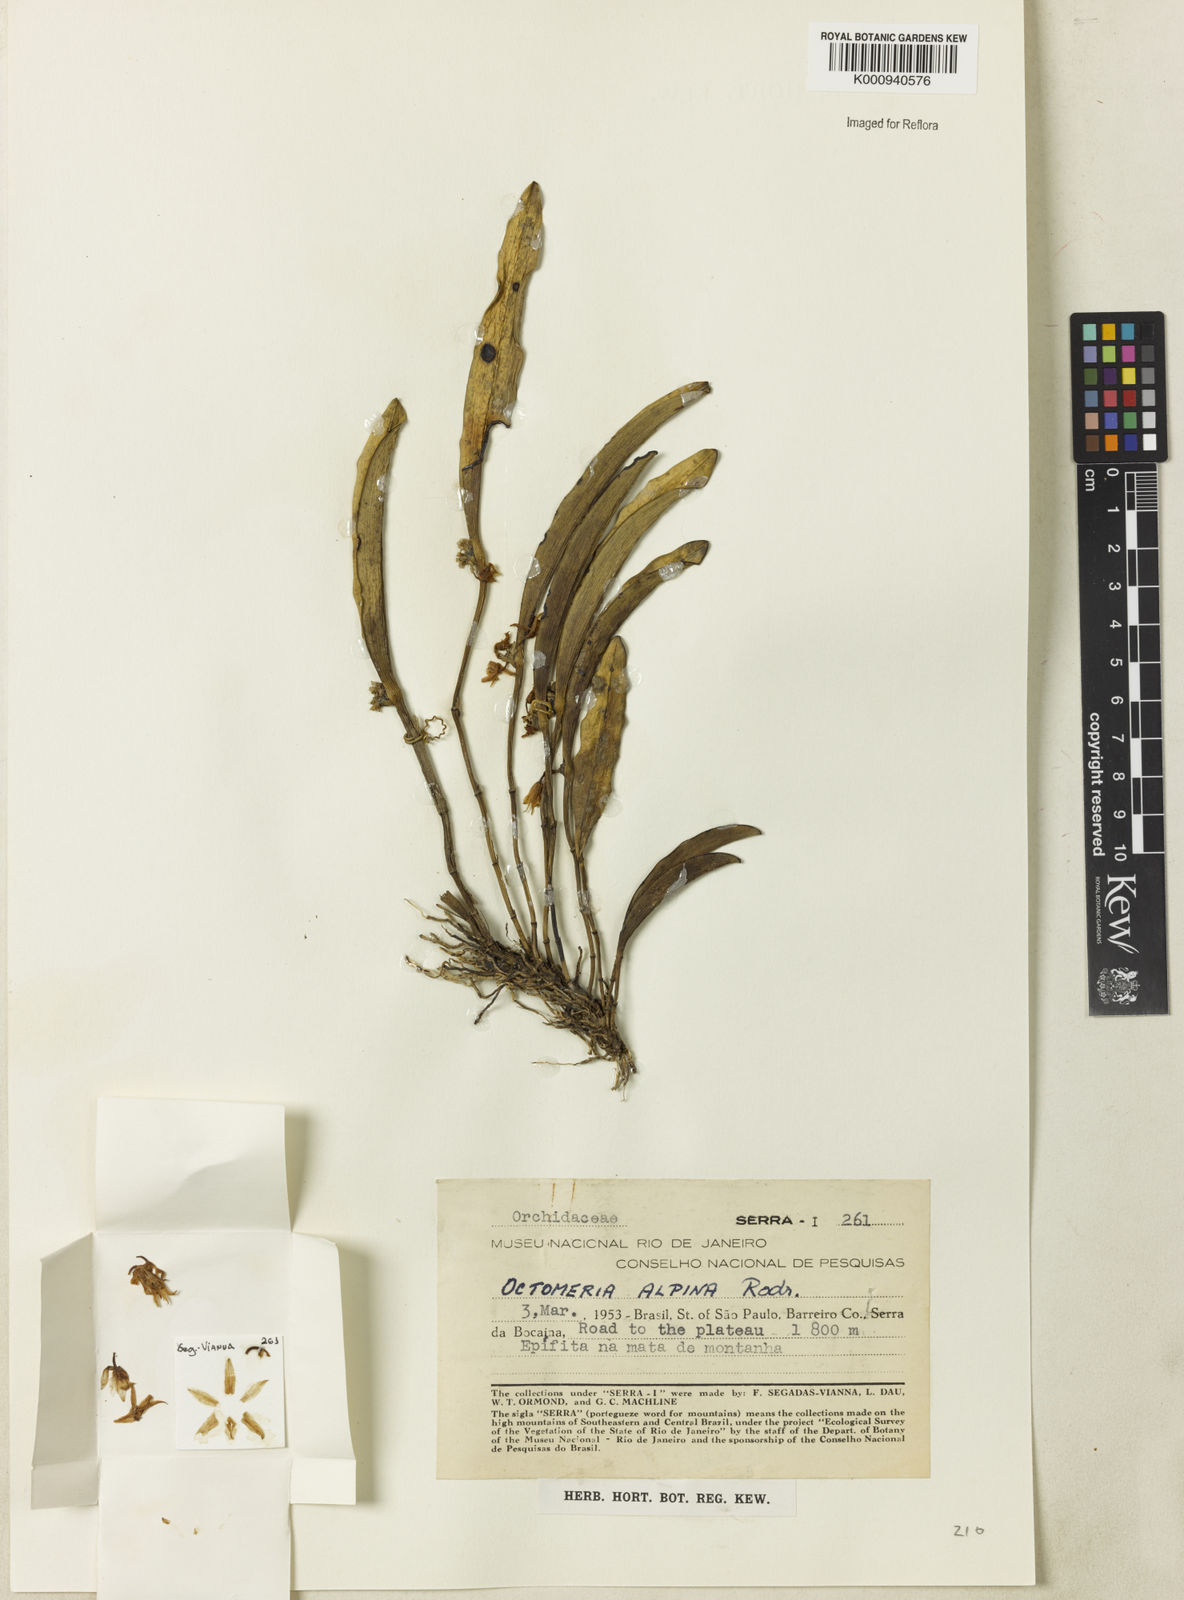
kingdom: Plantae
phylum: Tracheophyta
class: Liliopsida
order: Asparagales
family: Orchidaceae
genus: Octomeria
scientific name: Octomeria alpina
